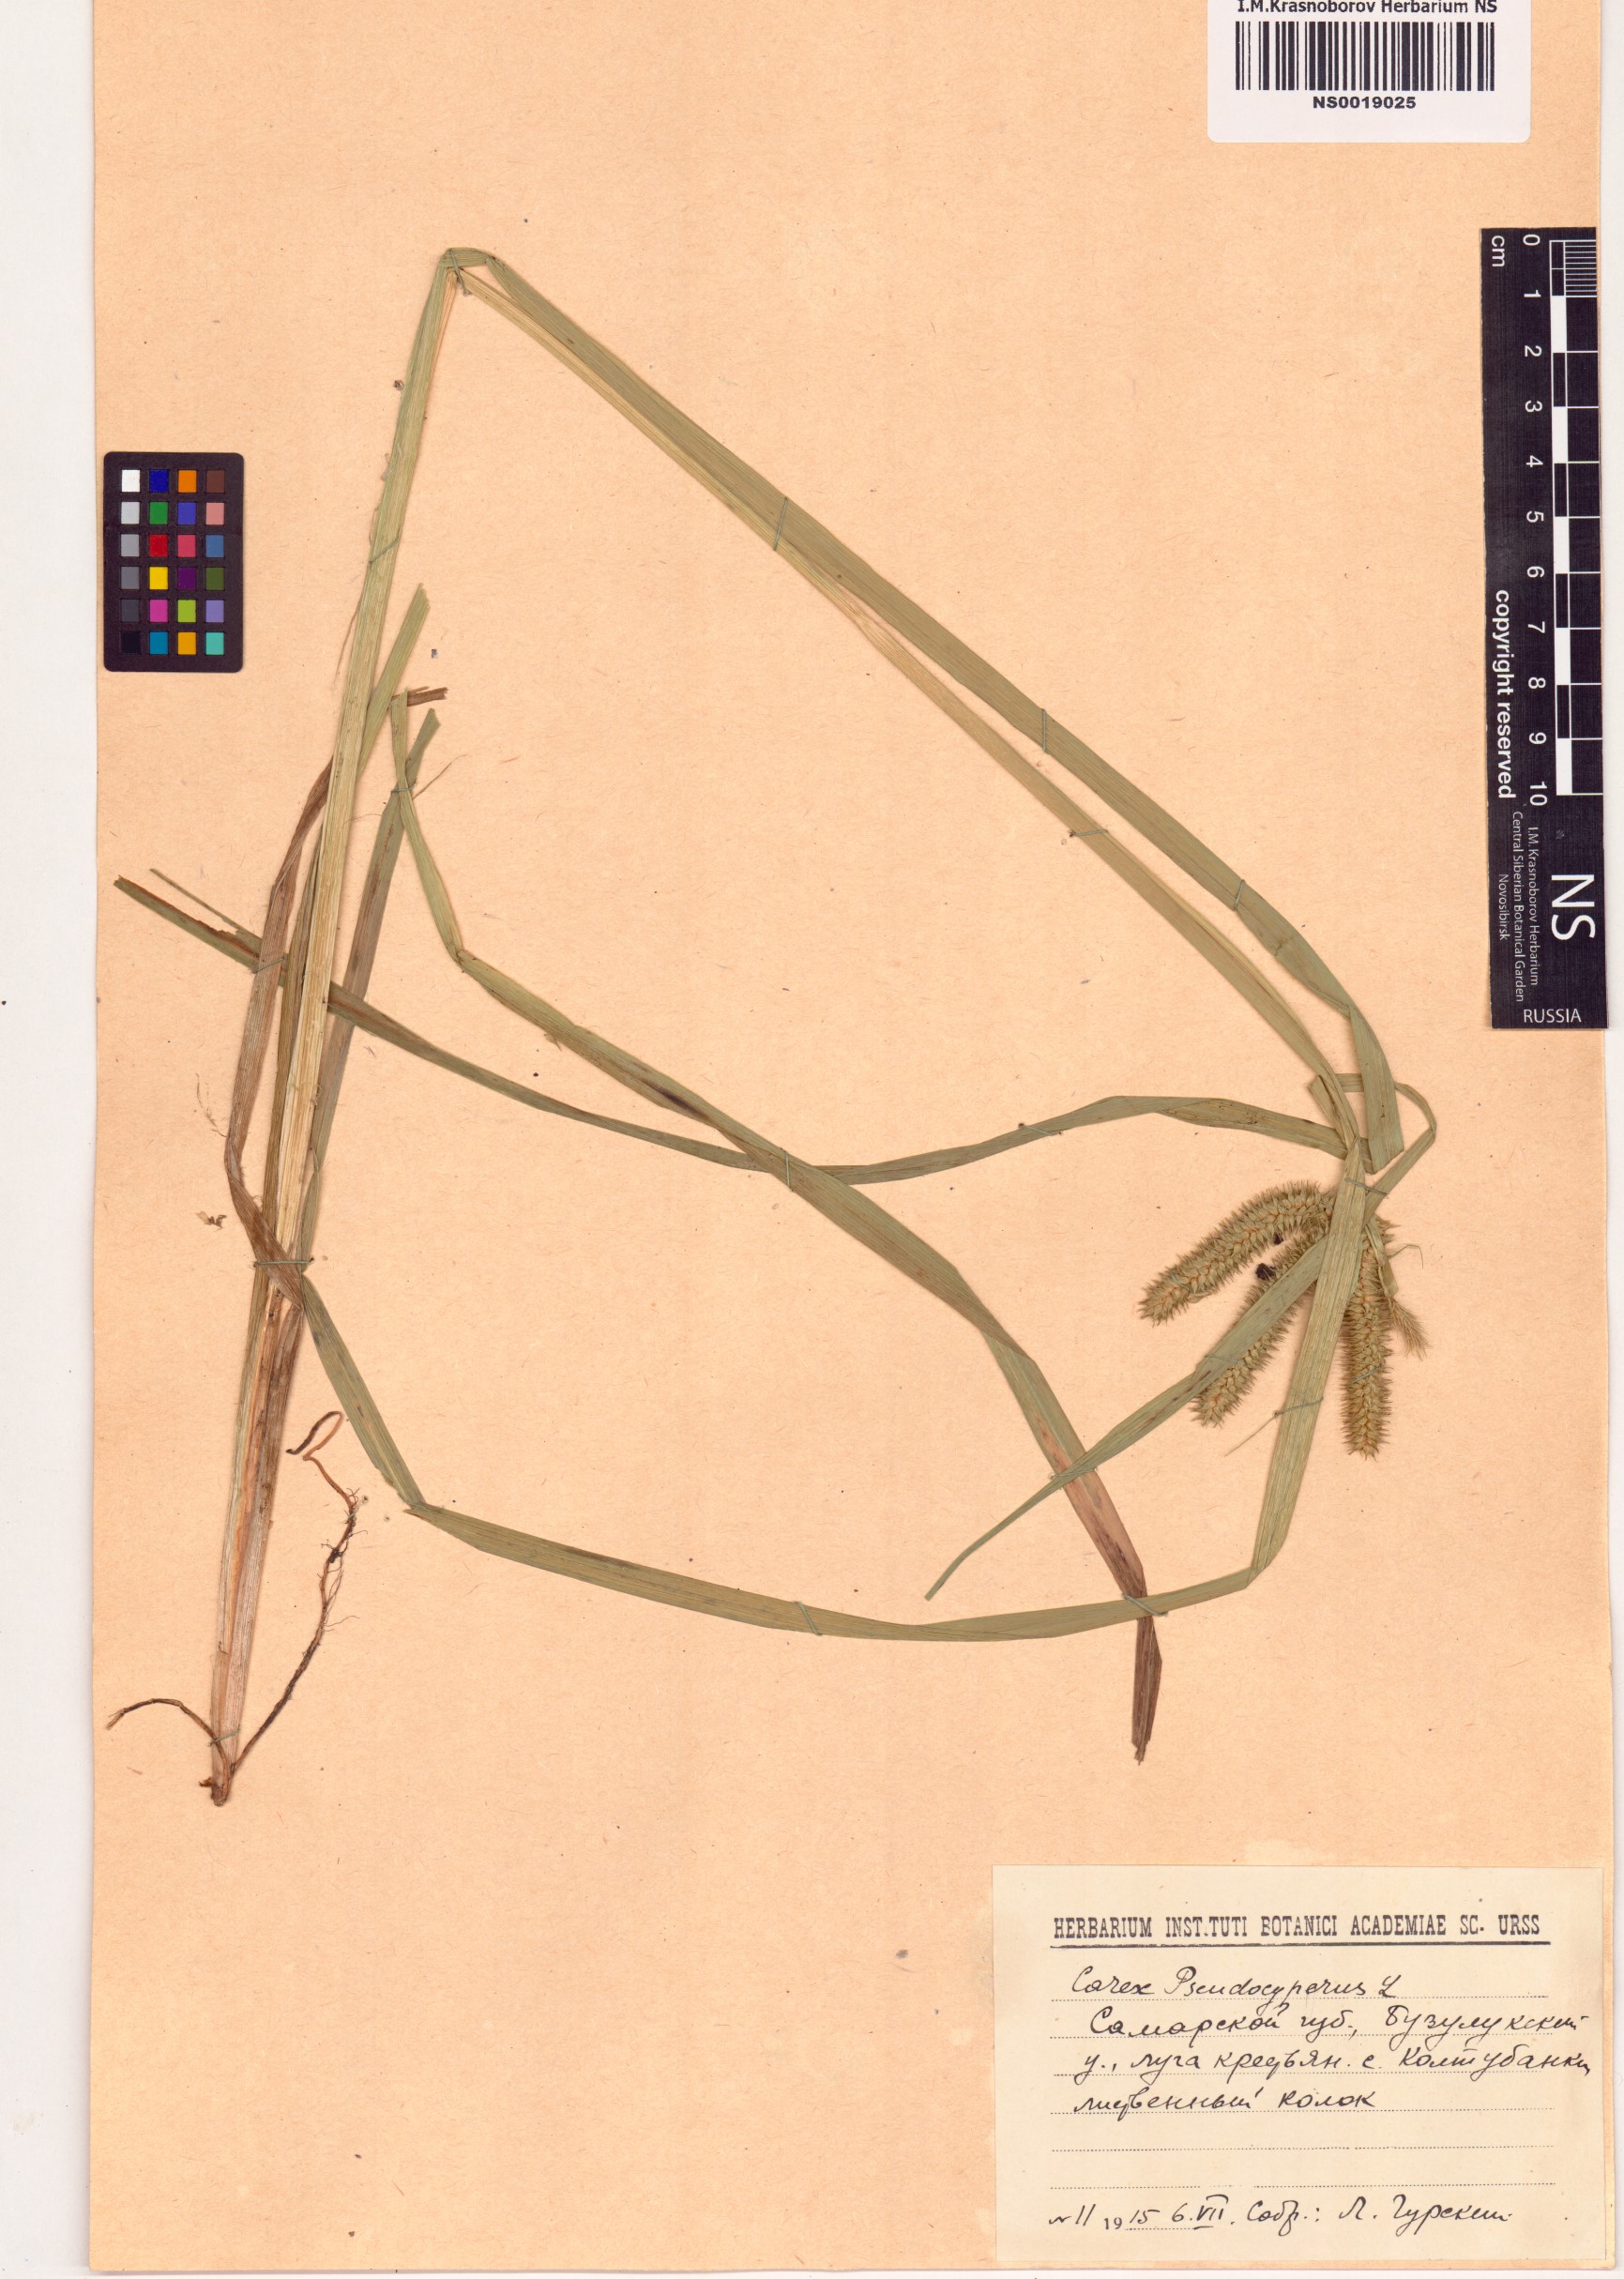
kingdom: Plantae
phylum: Tracheophyta
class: Liliopsida
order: Poales
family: Cyperaceae
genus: Carex
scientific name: Carex pseudocyperus
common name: Cyperus sedge
